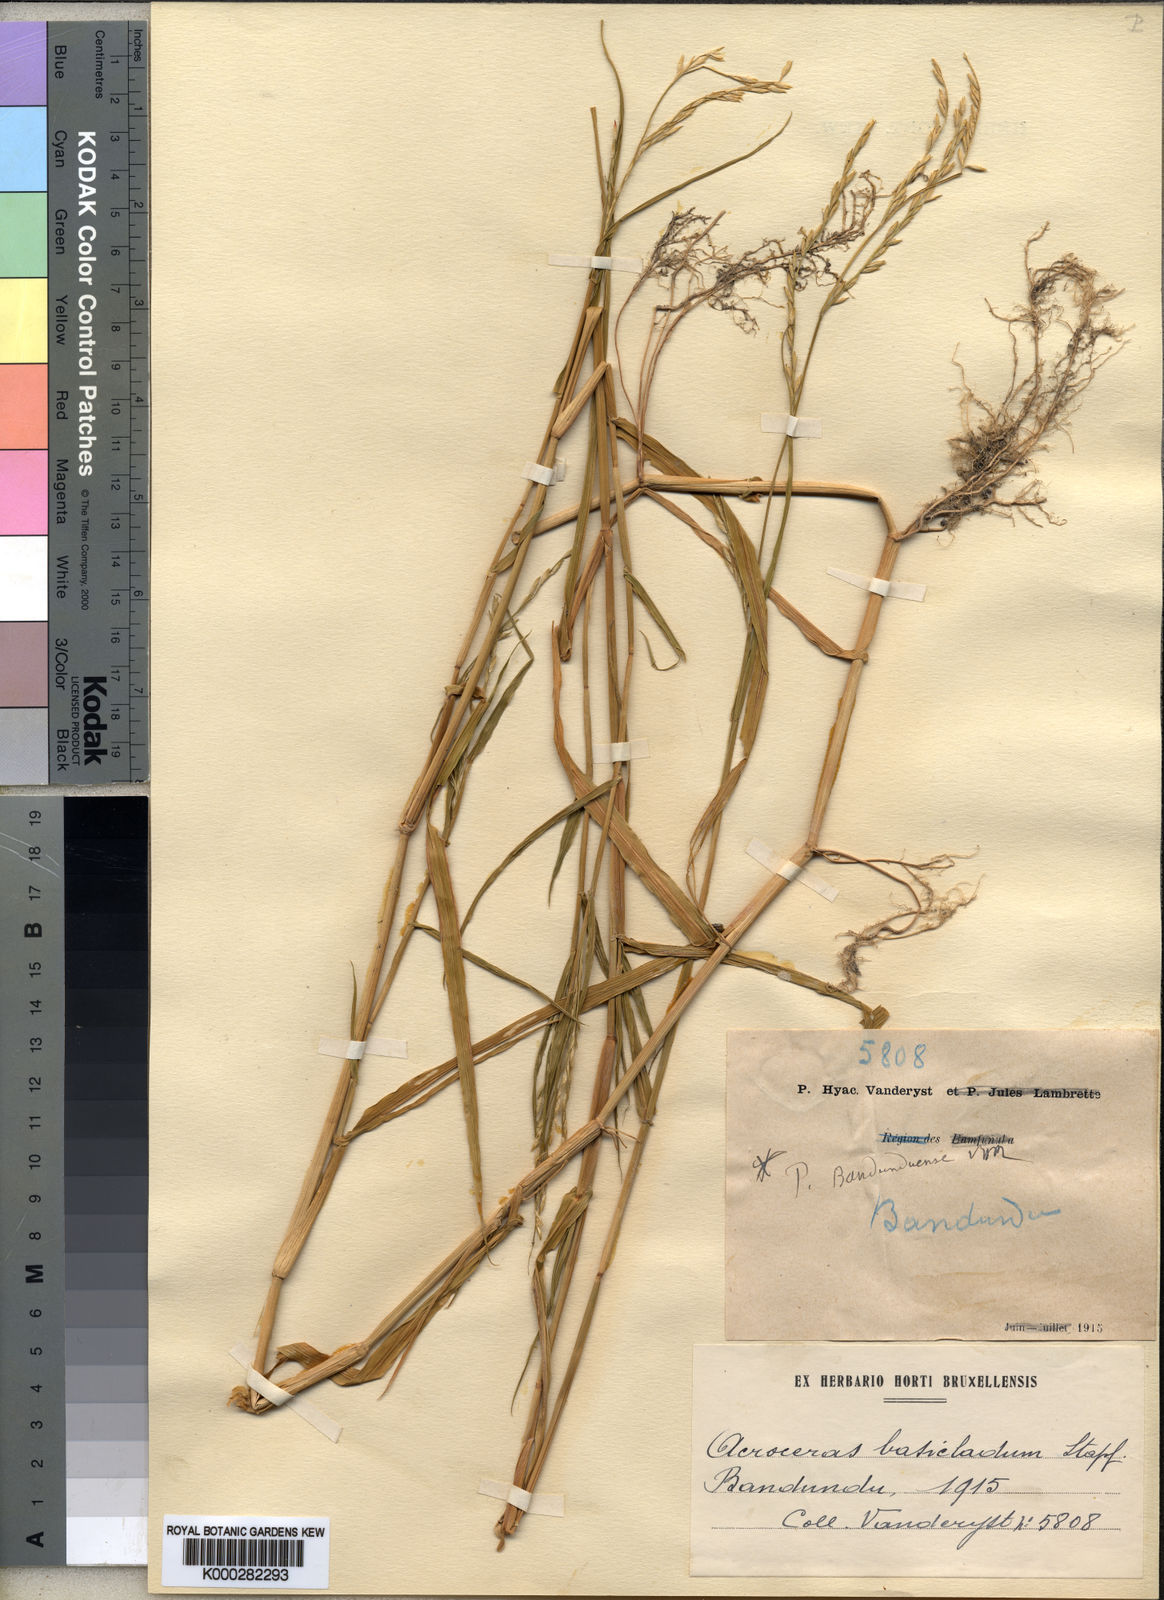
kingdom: Plantae
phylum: Tracheophyta
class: Liliopsida
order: Poales
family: Poaceae
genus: Acroceras
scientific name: Acroceras amplectens
